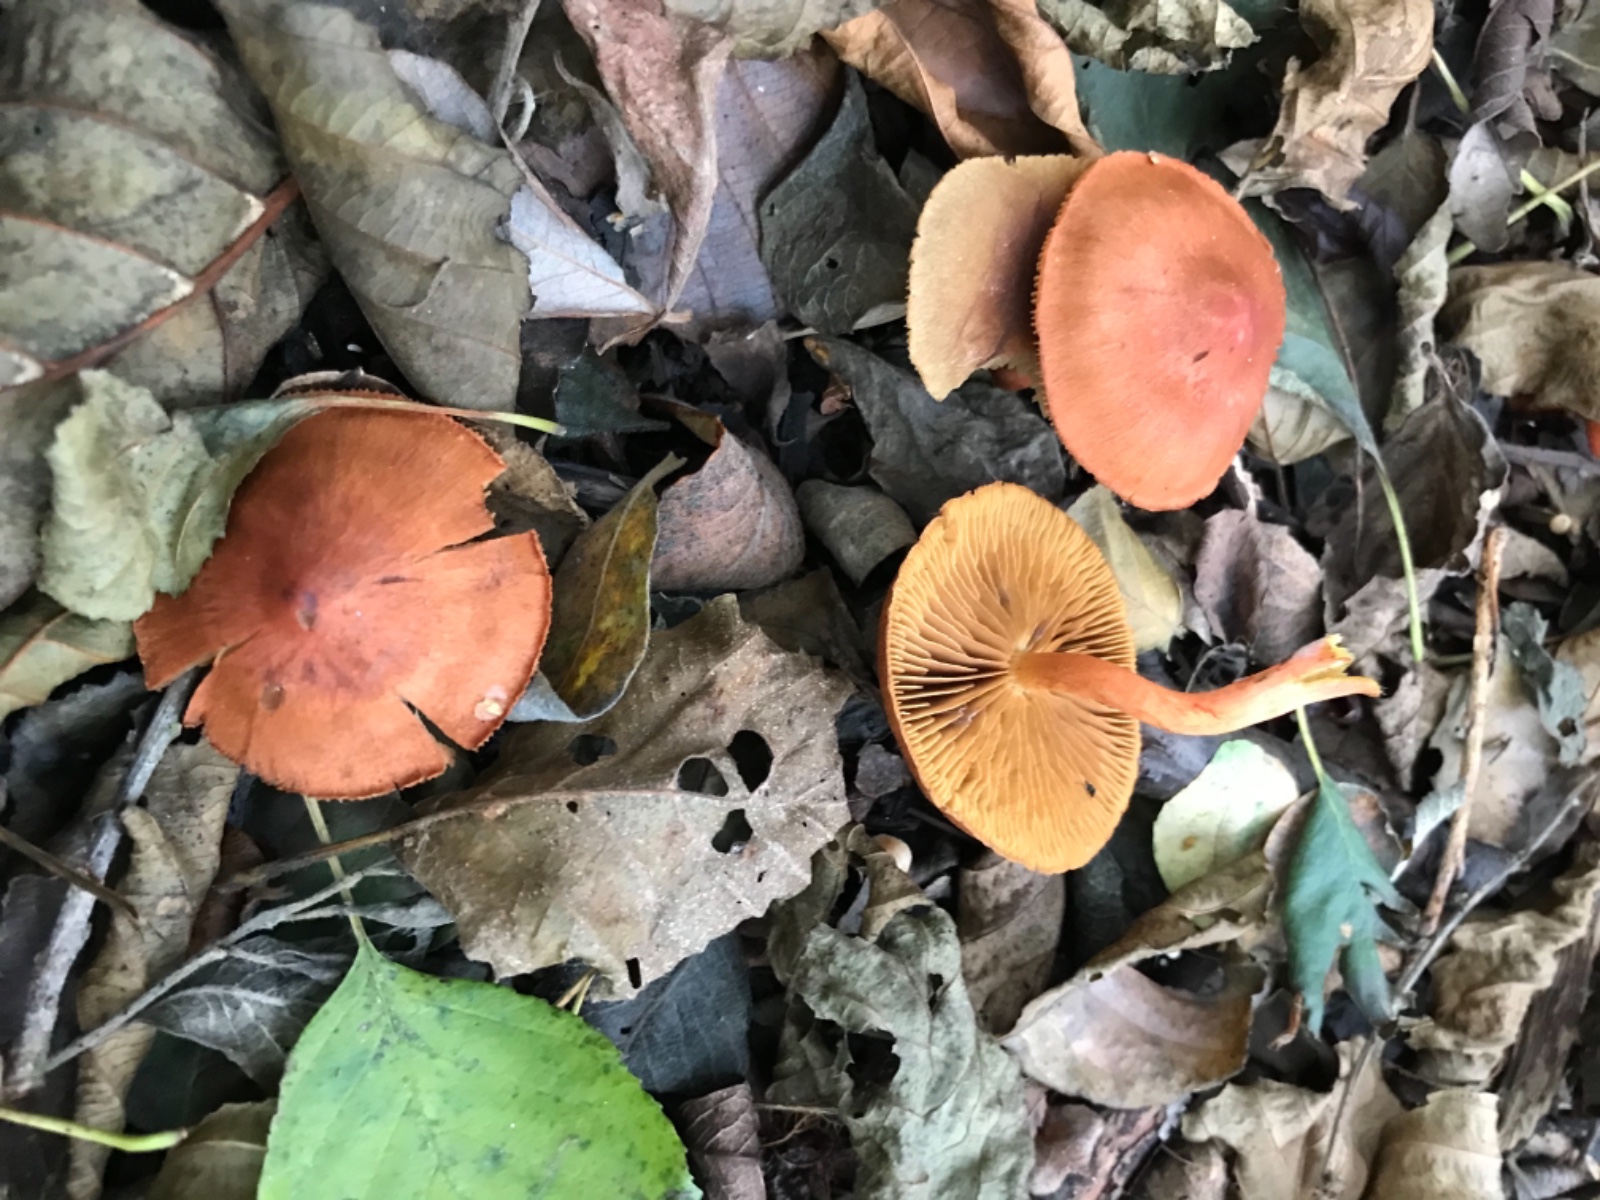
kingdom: Fungi
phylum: Basidiomycota
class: Agaricomycetes
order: Agaricales
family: Cortinariaceae
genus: Cortinarius
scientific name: Cortinarius uliginosus
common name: mose-slørhat
